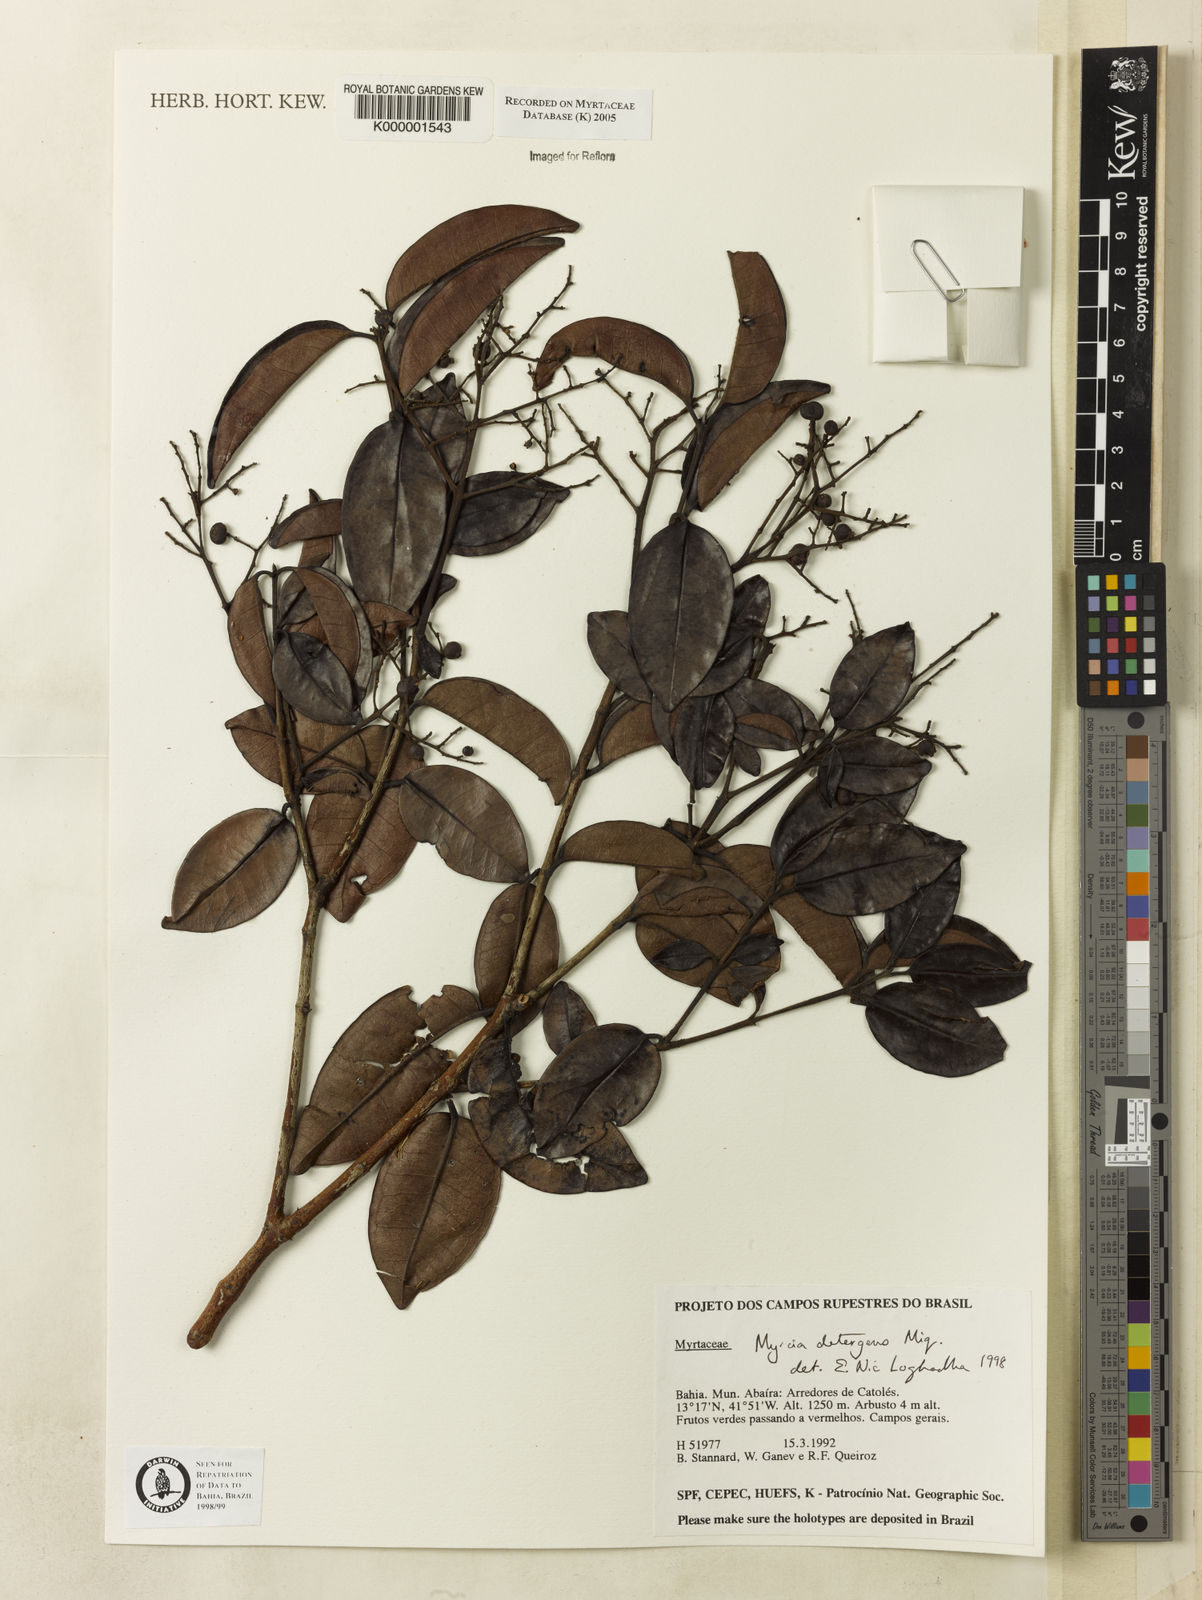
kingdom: Plantae
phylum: Tracheophyta
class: Magnoliopsida
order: Myrtales
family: Myrtaceae
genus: Myrcia
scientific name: Myrcia amazonica
